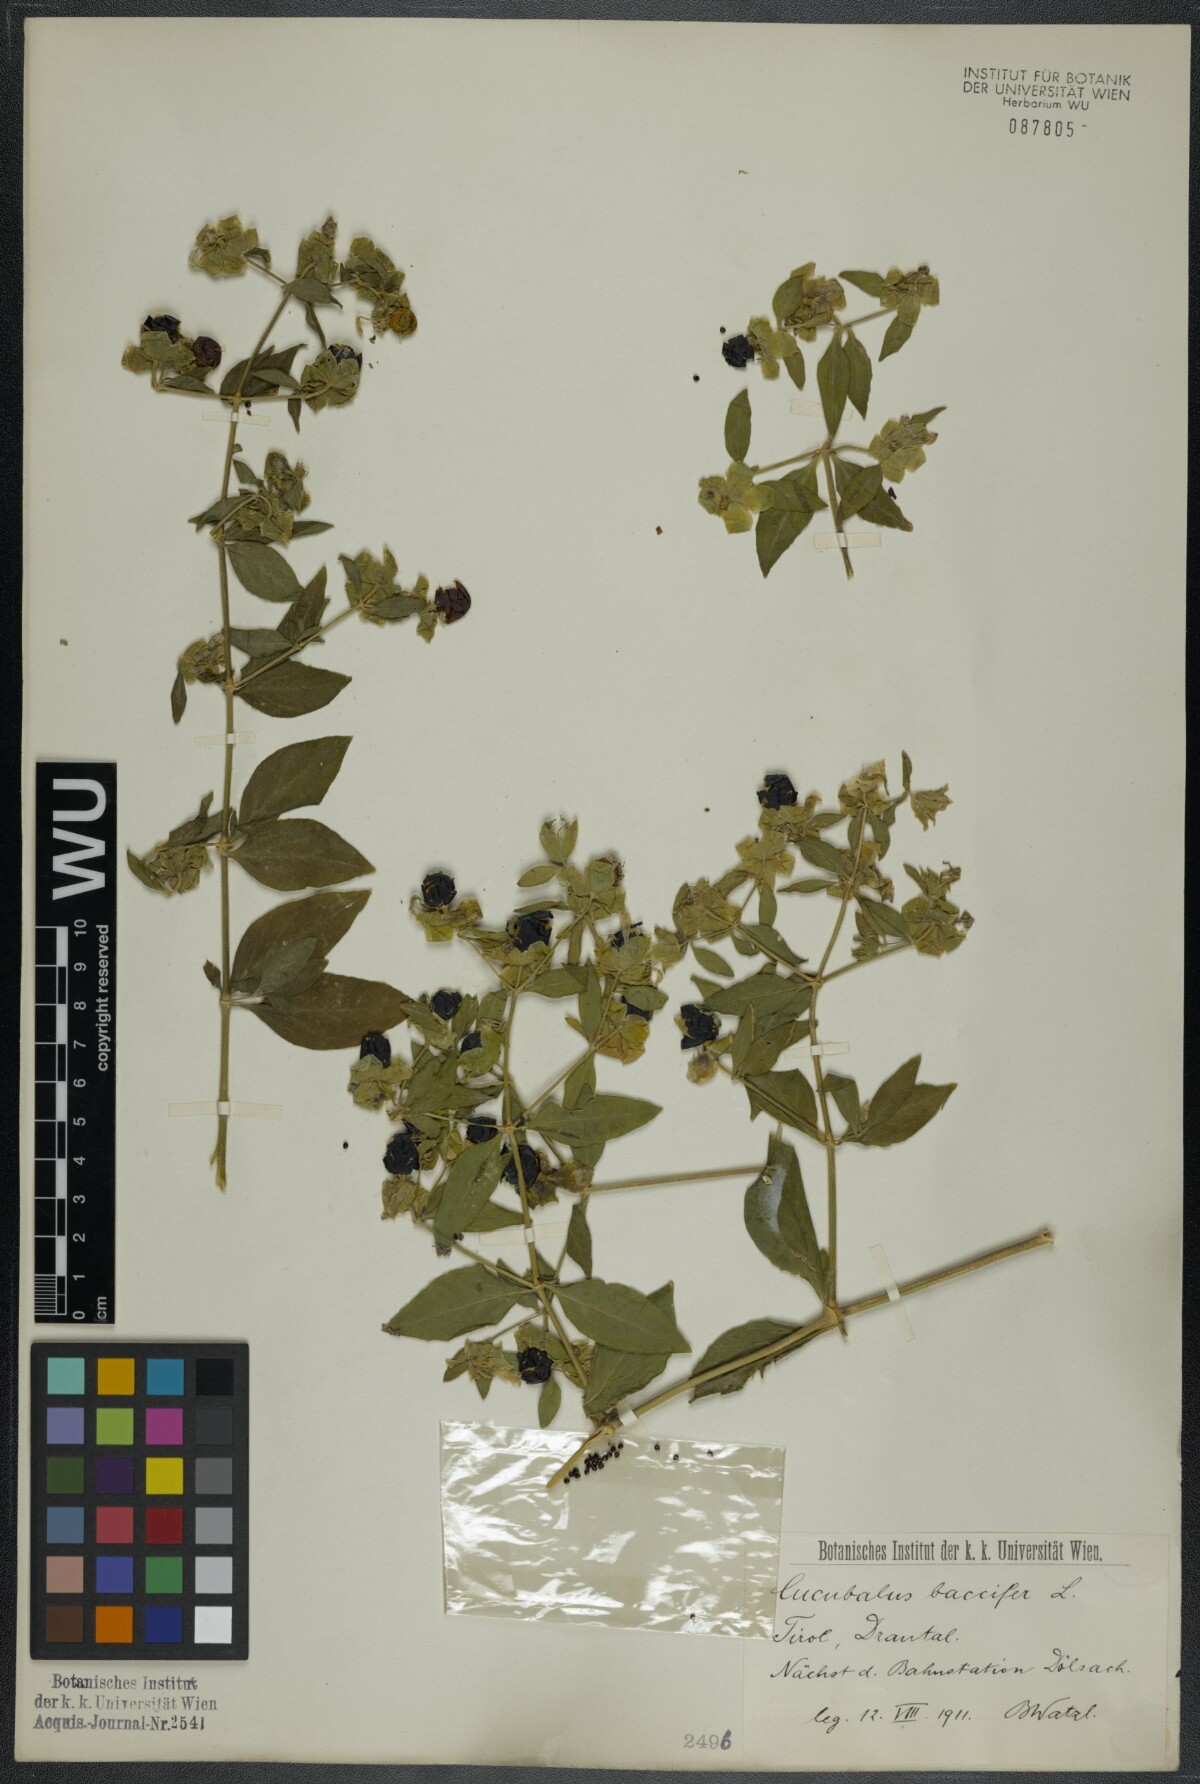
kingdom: Plantae
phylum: Tracheophyta
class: Magnoliopsida
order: Caryophyllales
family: Caryophyllaceae
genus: Silene
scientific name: Silene baccifera
